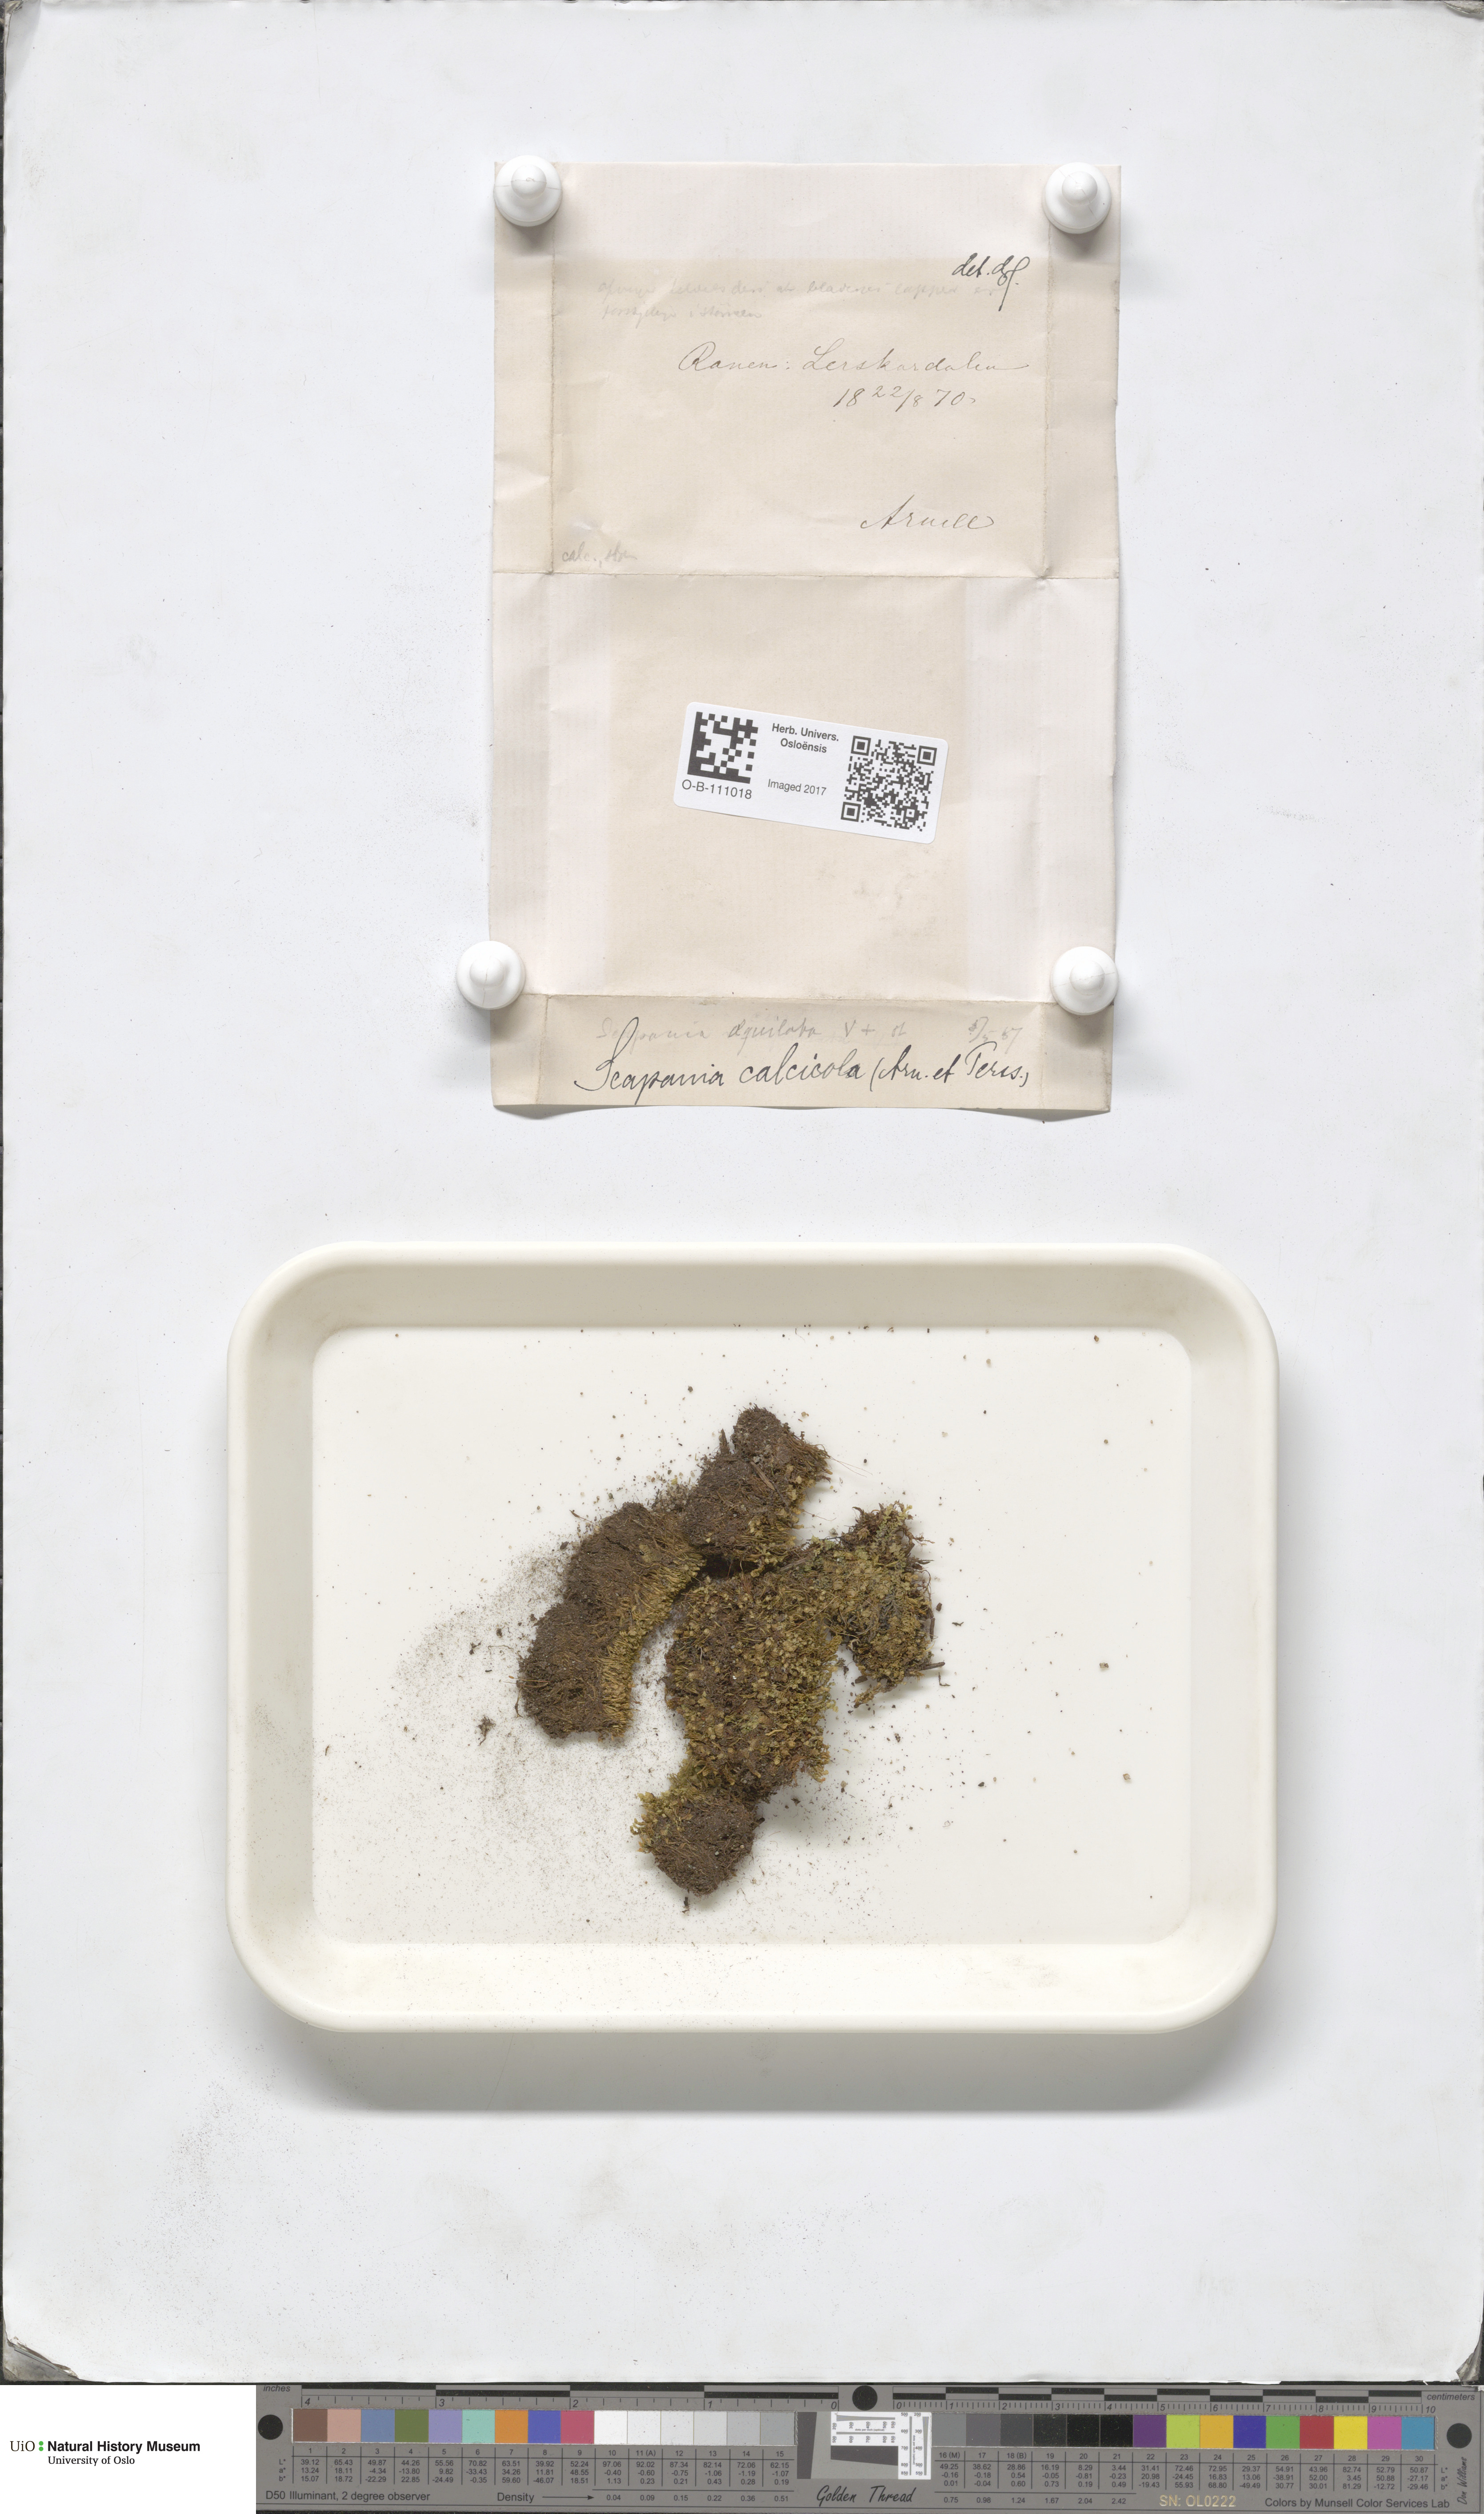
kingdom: Plantae
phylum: Marchantiophyta
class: Jungermanniopsida
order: Jungermanniales
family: Scapaniaceae
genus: Scapania
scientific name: Scapania calcicola
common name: Calcicolous earwort
